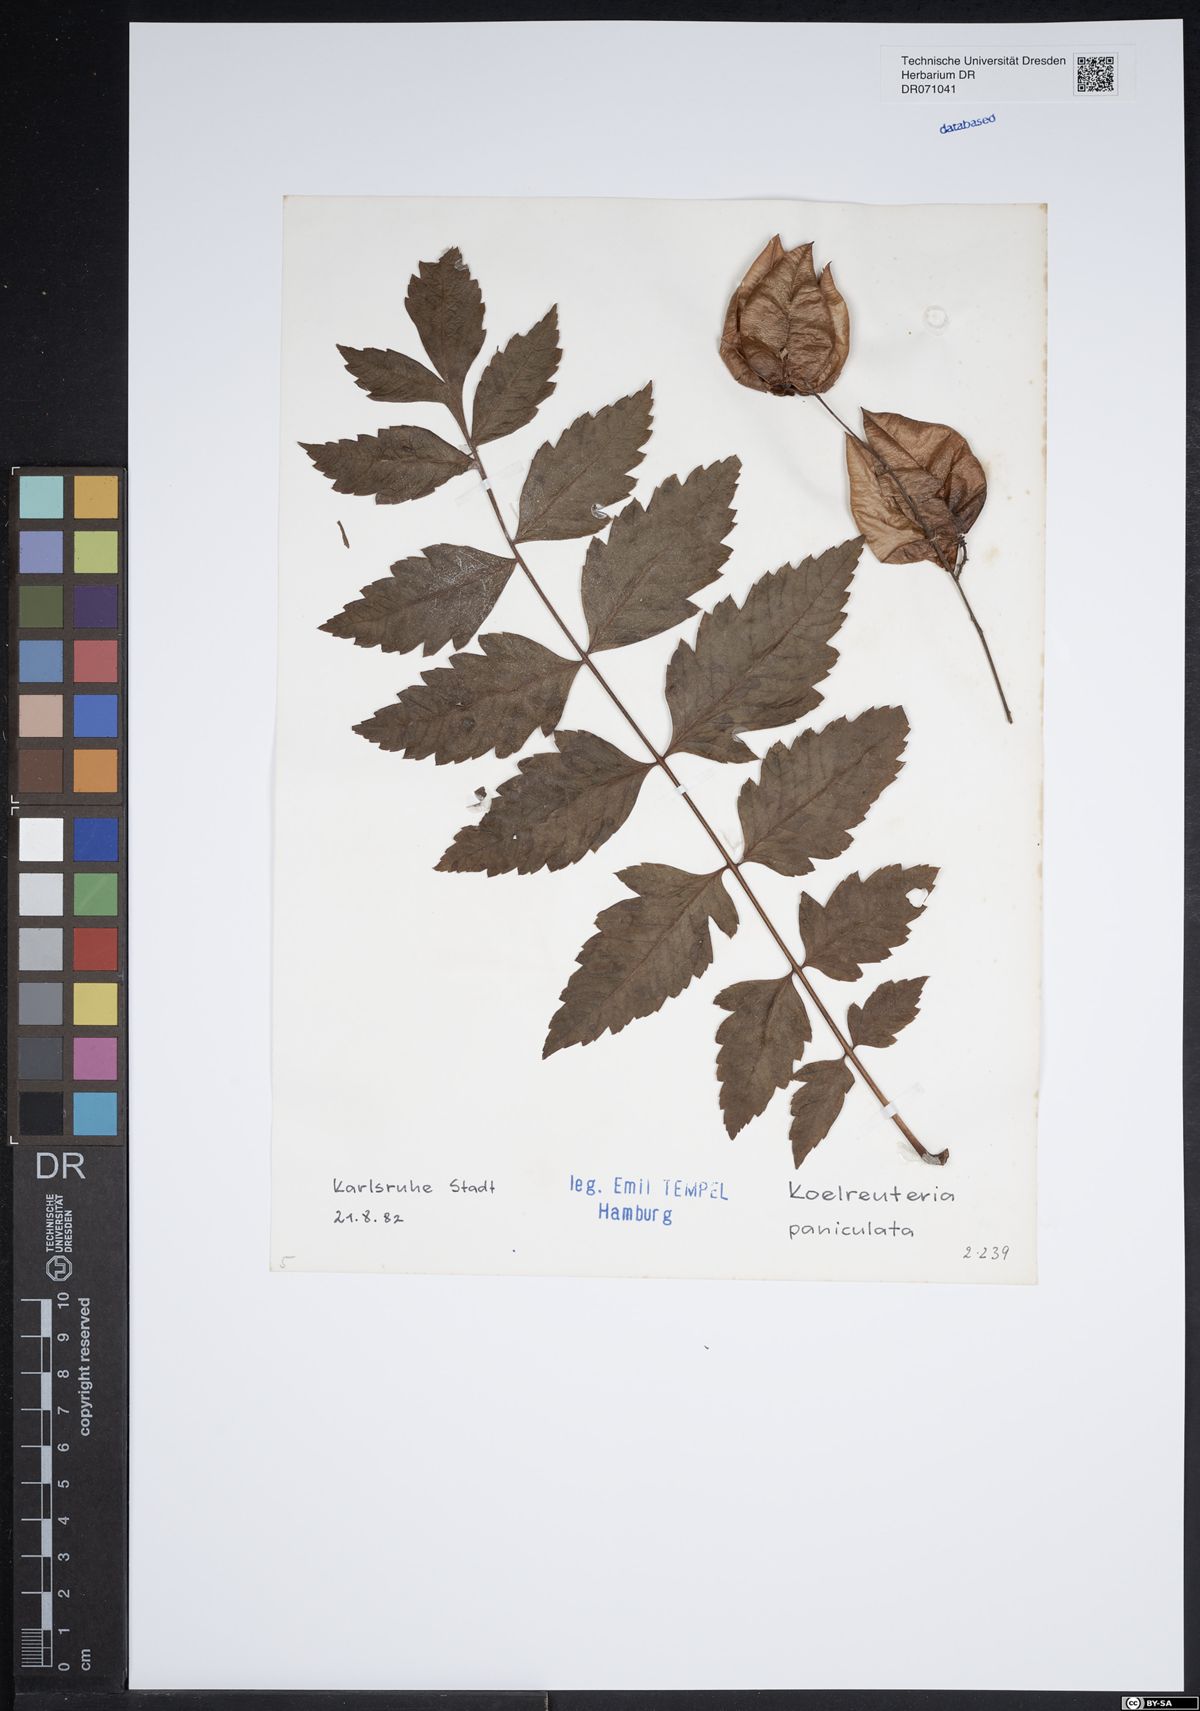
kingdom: Plantae
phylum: Tracheophyta
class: Magnoliopsida
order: Sapindales
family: Sapindaceae
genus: Koelreuteria
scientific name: Koelreuteria paniculata
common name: Pride-of-india
